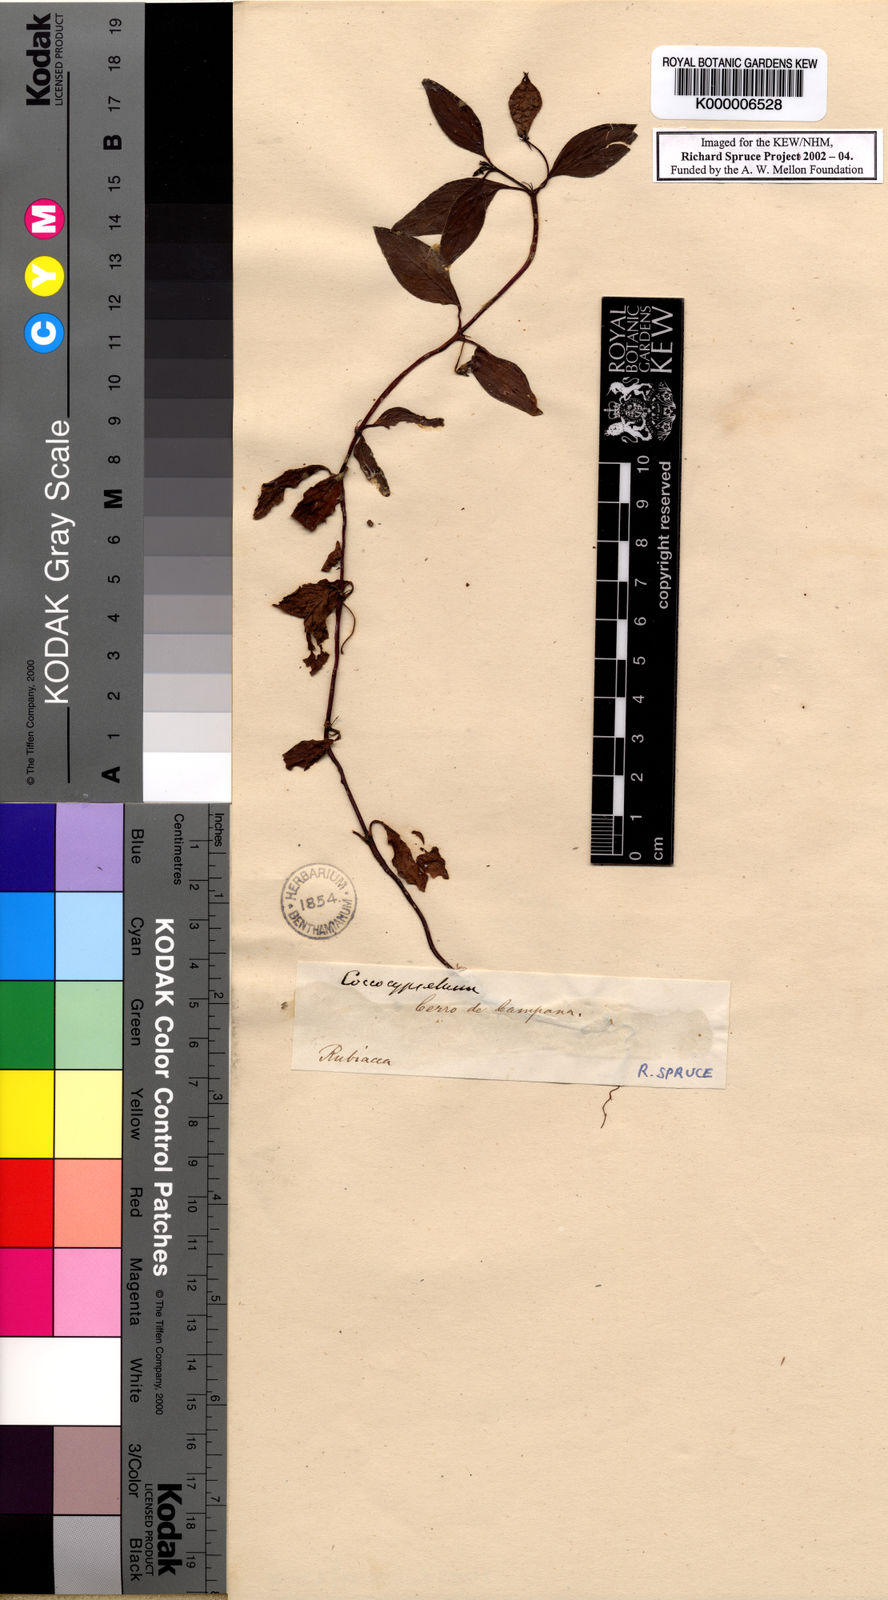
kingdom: Plantae
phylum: Tracheophyta
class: Magnoliopsida
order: Gentianales
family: Rubiaceae
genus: Coccocypselum
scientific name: Coccocypselum condalia
